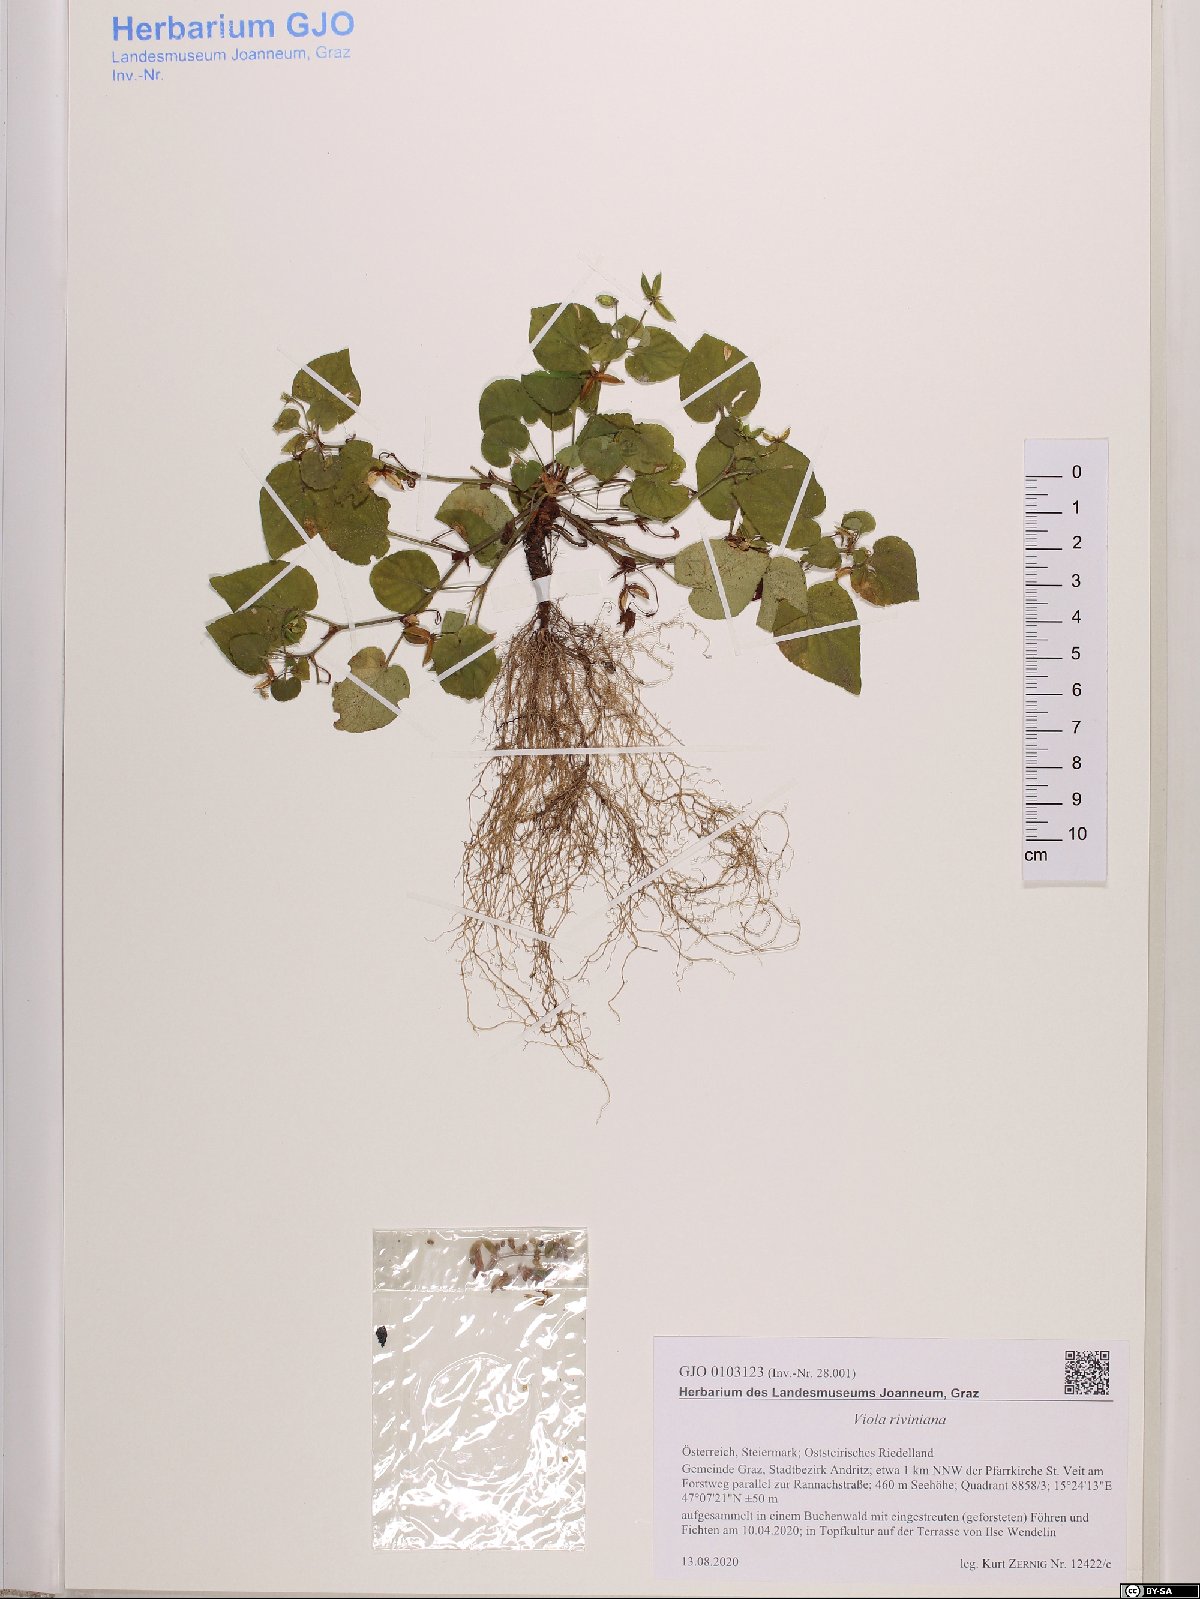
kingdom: Plantae
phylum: Tracheophyta
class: Magnoliopsida
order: Malpighiales
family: Violaceae
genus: Viola
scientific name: Viola riviniana
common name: Common dog-violet
